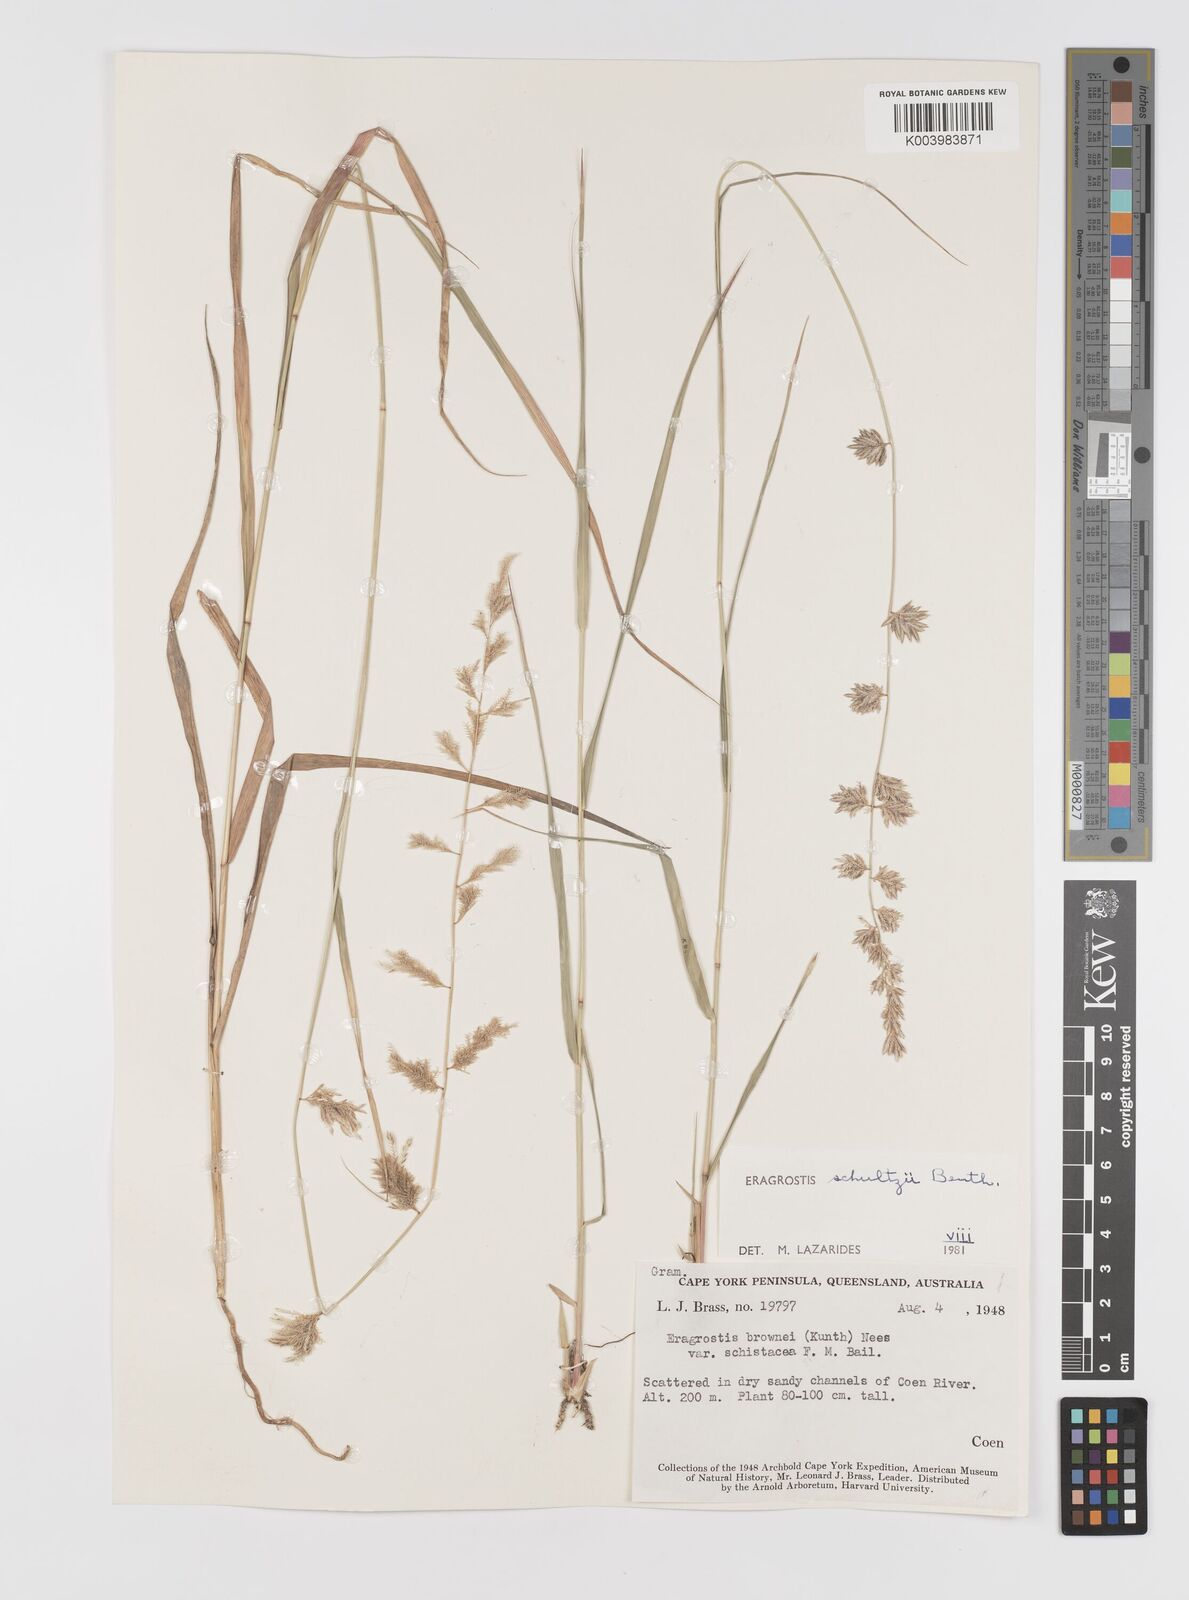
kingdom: Plantae
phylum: Tracheophyta
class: Liliopsida
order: Poales
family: Poaceae
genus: Eragrostis
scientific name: Eragrostis schultzii
